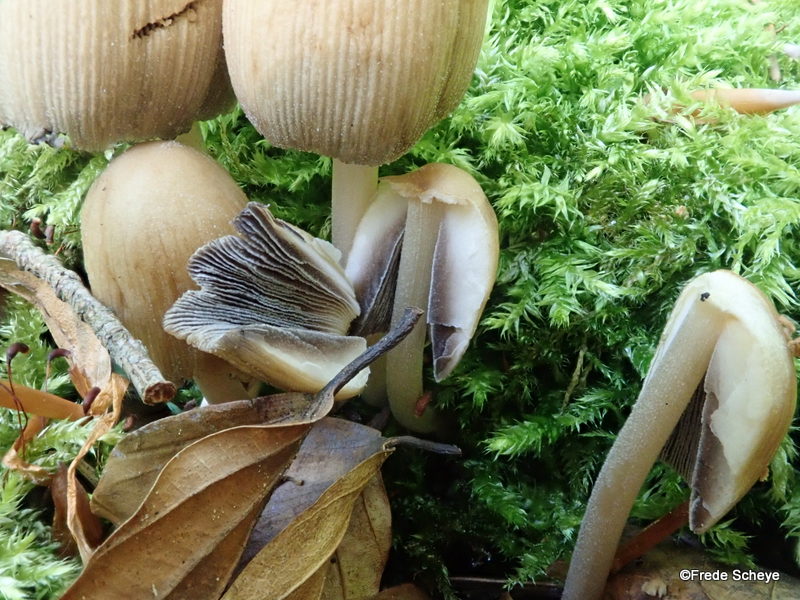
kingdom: Fungi
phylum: Basidiomycota
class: Agaricomycetes
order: Agaricales
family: Psathyrellaceae
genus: Coprinellus
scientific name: Coprinellus micaceus
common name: glimmer-blækhat
